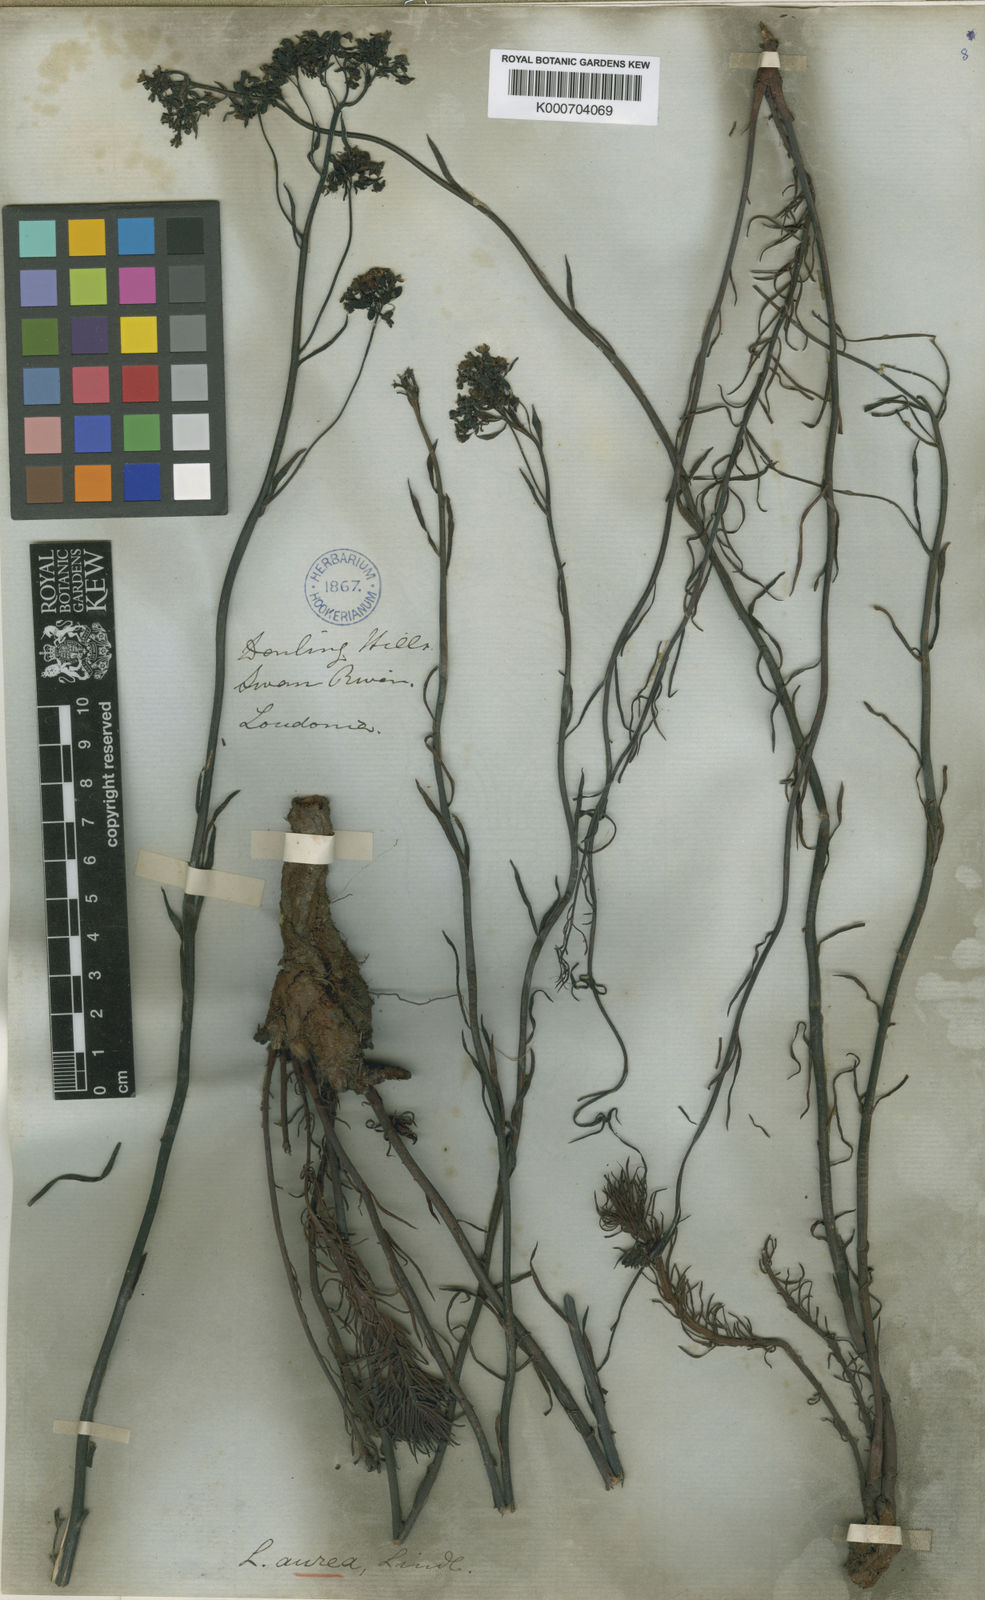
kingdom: Plantae
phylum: Tracheophyta
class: Magnoliopsida
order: Saxifragales
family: Haloragaceae
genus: Glischrocaryon
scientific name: Glischrocaryon aureum
